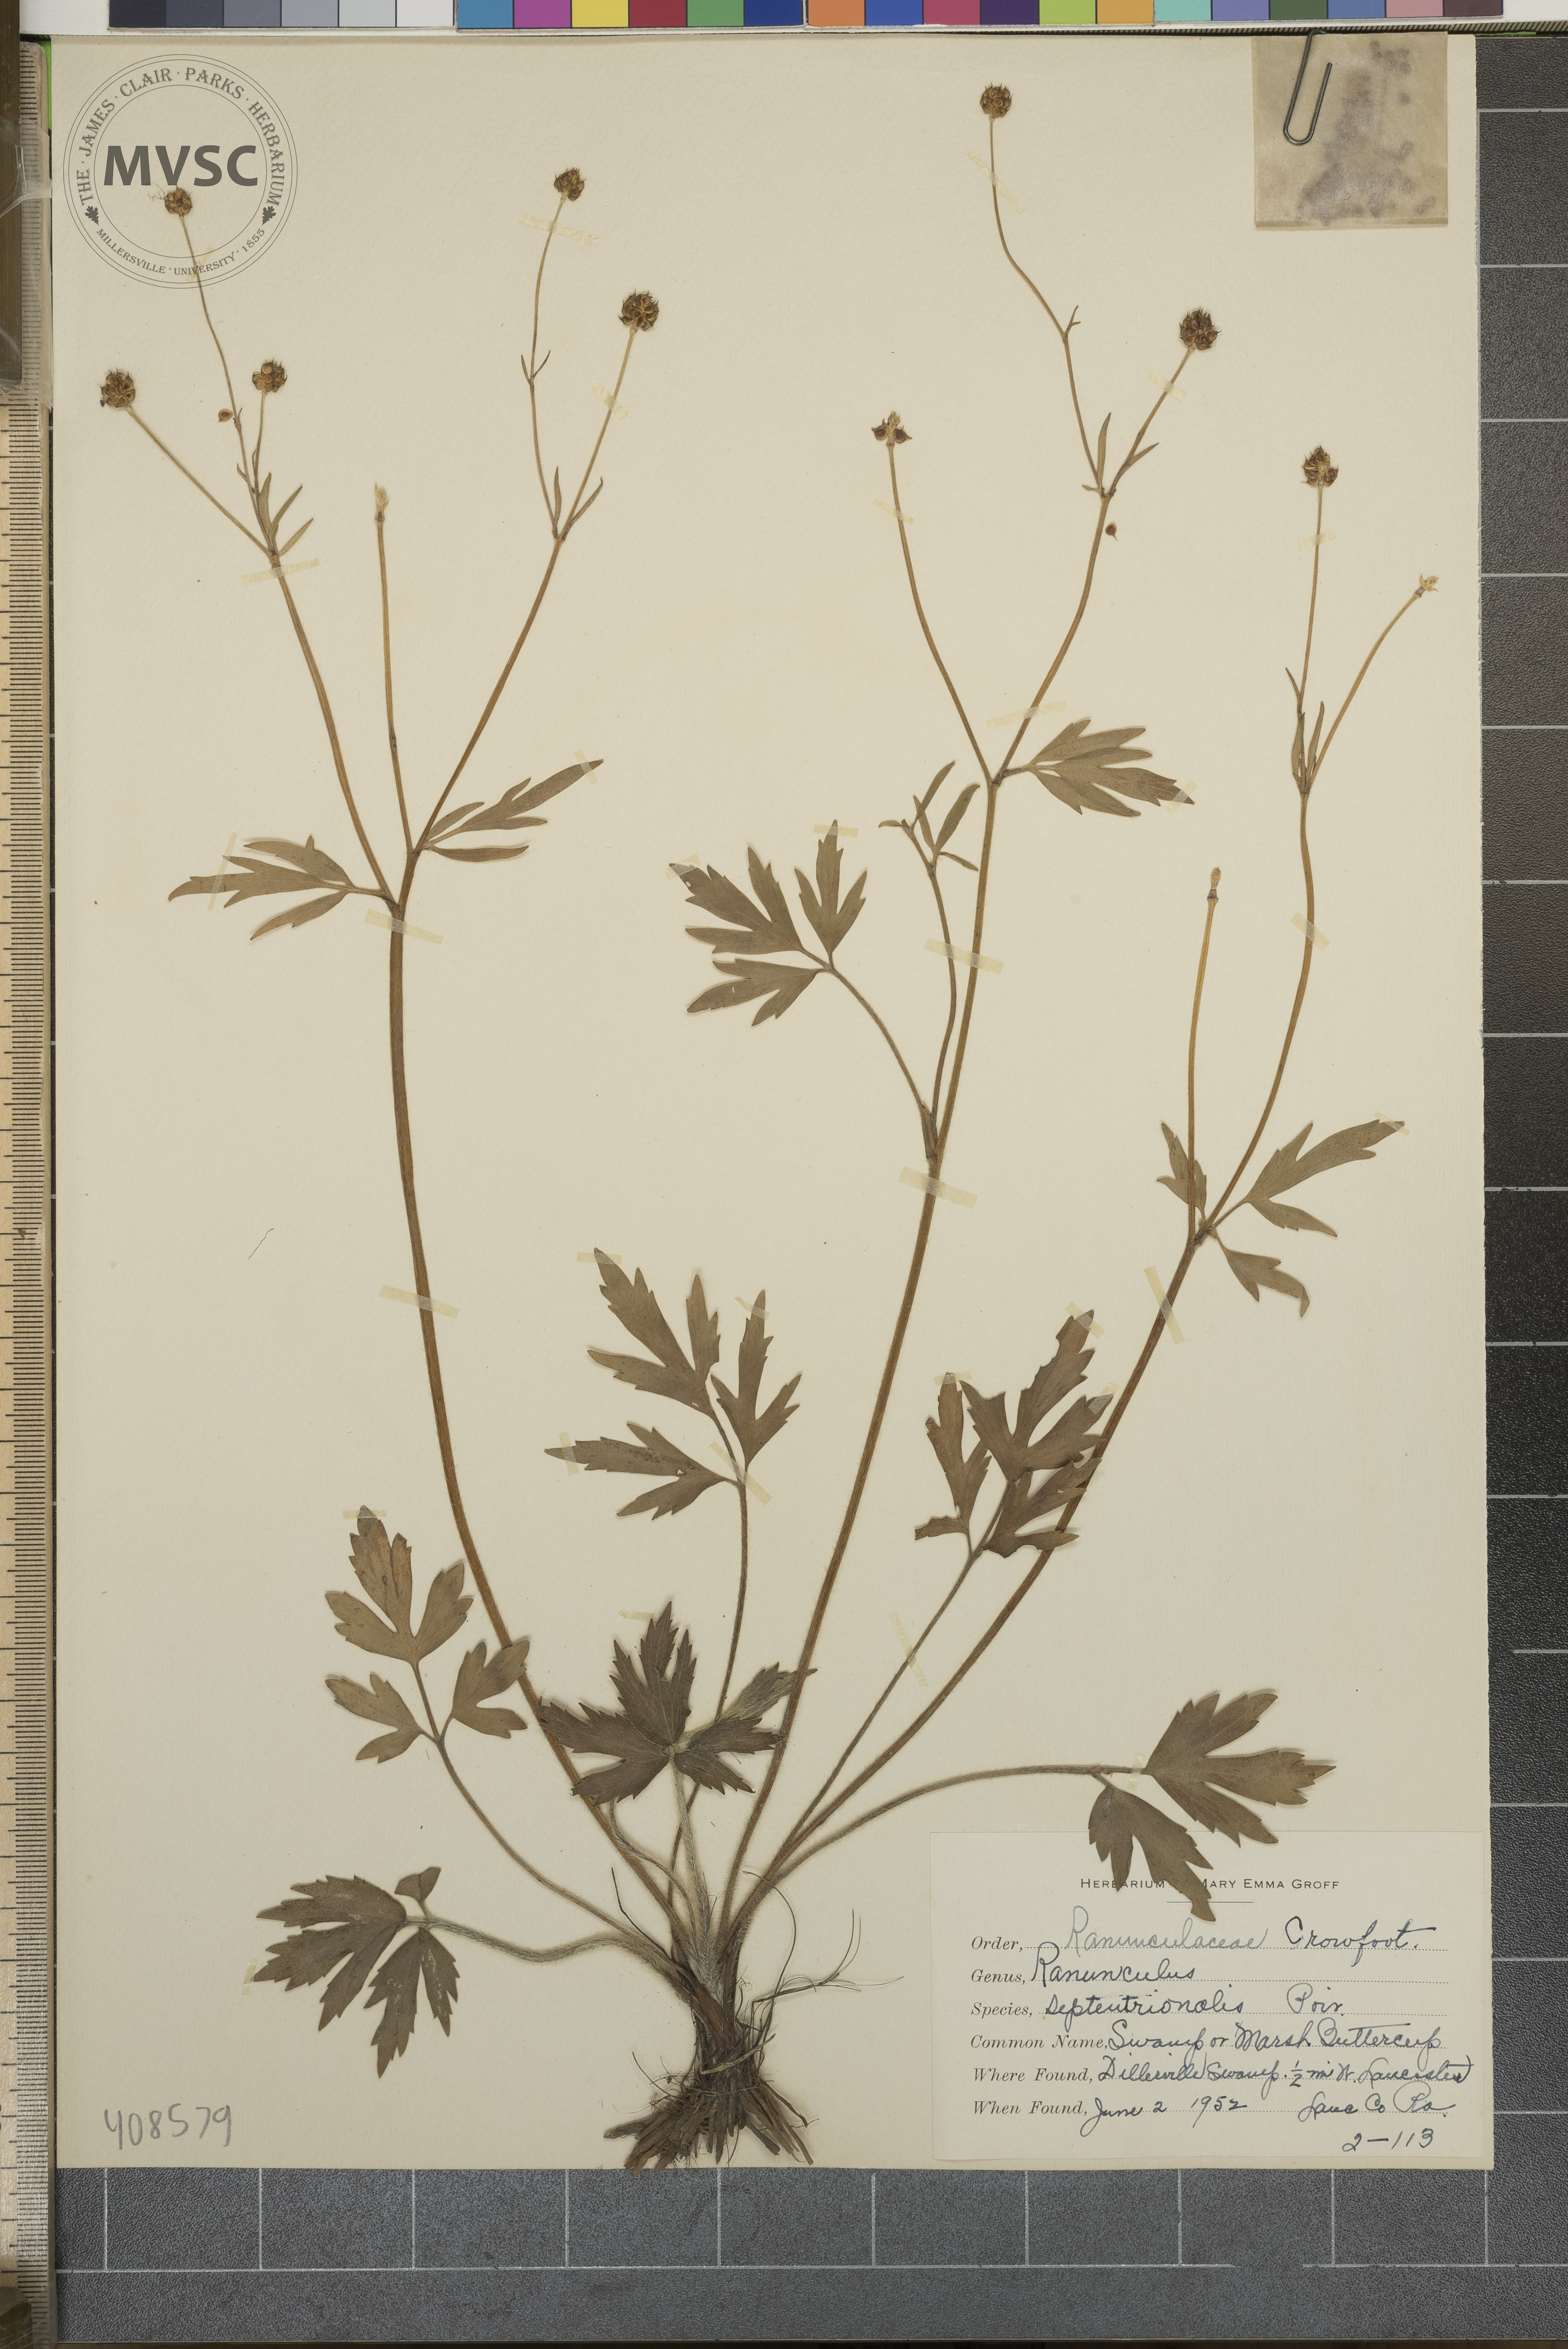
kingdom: Plantae
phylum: Tracheophyta
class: Magnoliopsida
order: Ranunculales
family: Ranunculaceae
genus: Ranunculus
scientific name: Ranunculus hispidus
